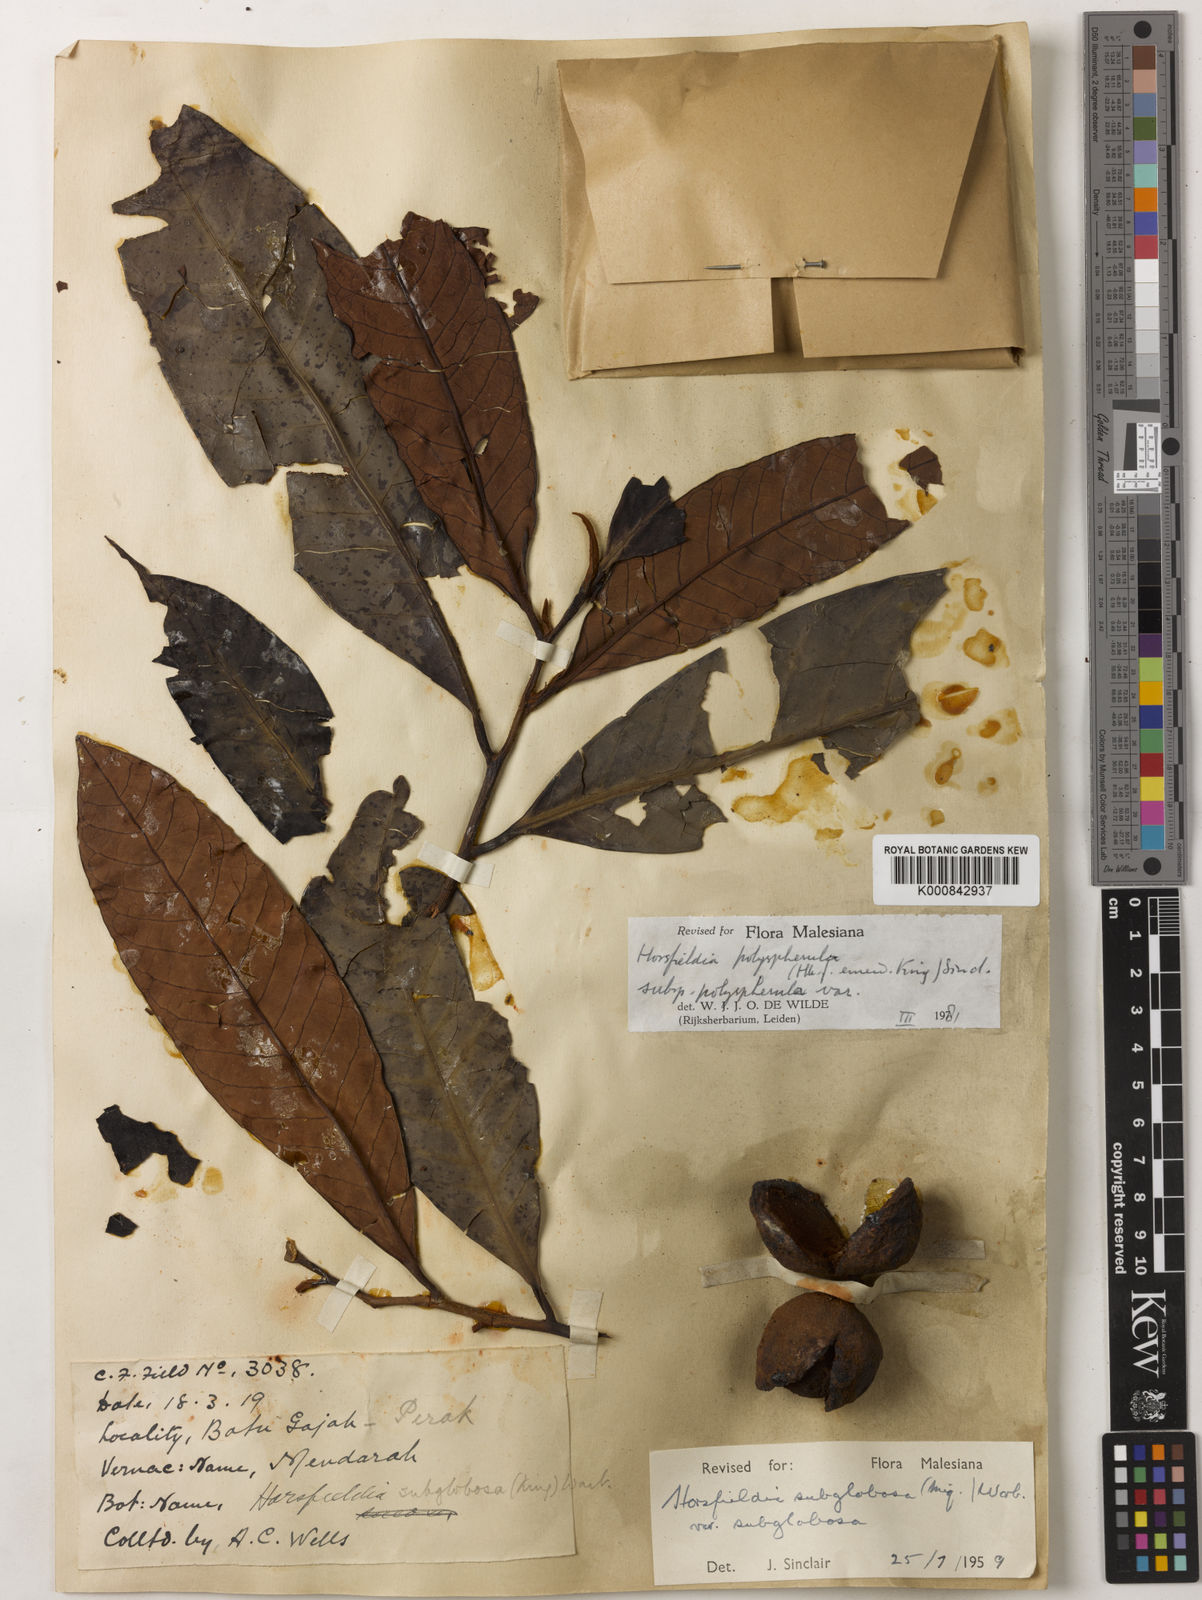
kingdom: Plantae
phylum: Tracheophyta
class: Magnoliopsida
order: Magnoliales
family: Myristicaceae
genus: Horsfieldia
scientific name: Horsfieldia
